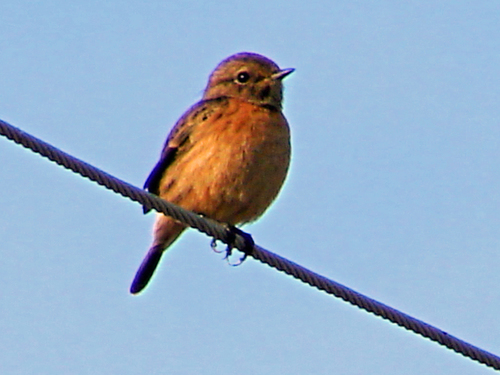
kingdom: Animalia
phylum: Chordata
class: Aves
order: Passeriformes
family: Muscicapidae
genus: Saxicola
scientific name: Saxicola rubicola
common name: European stonechat
